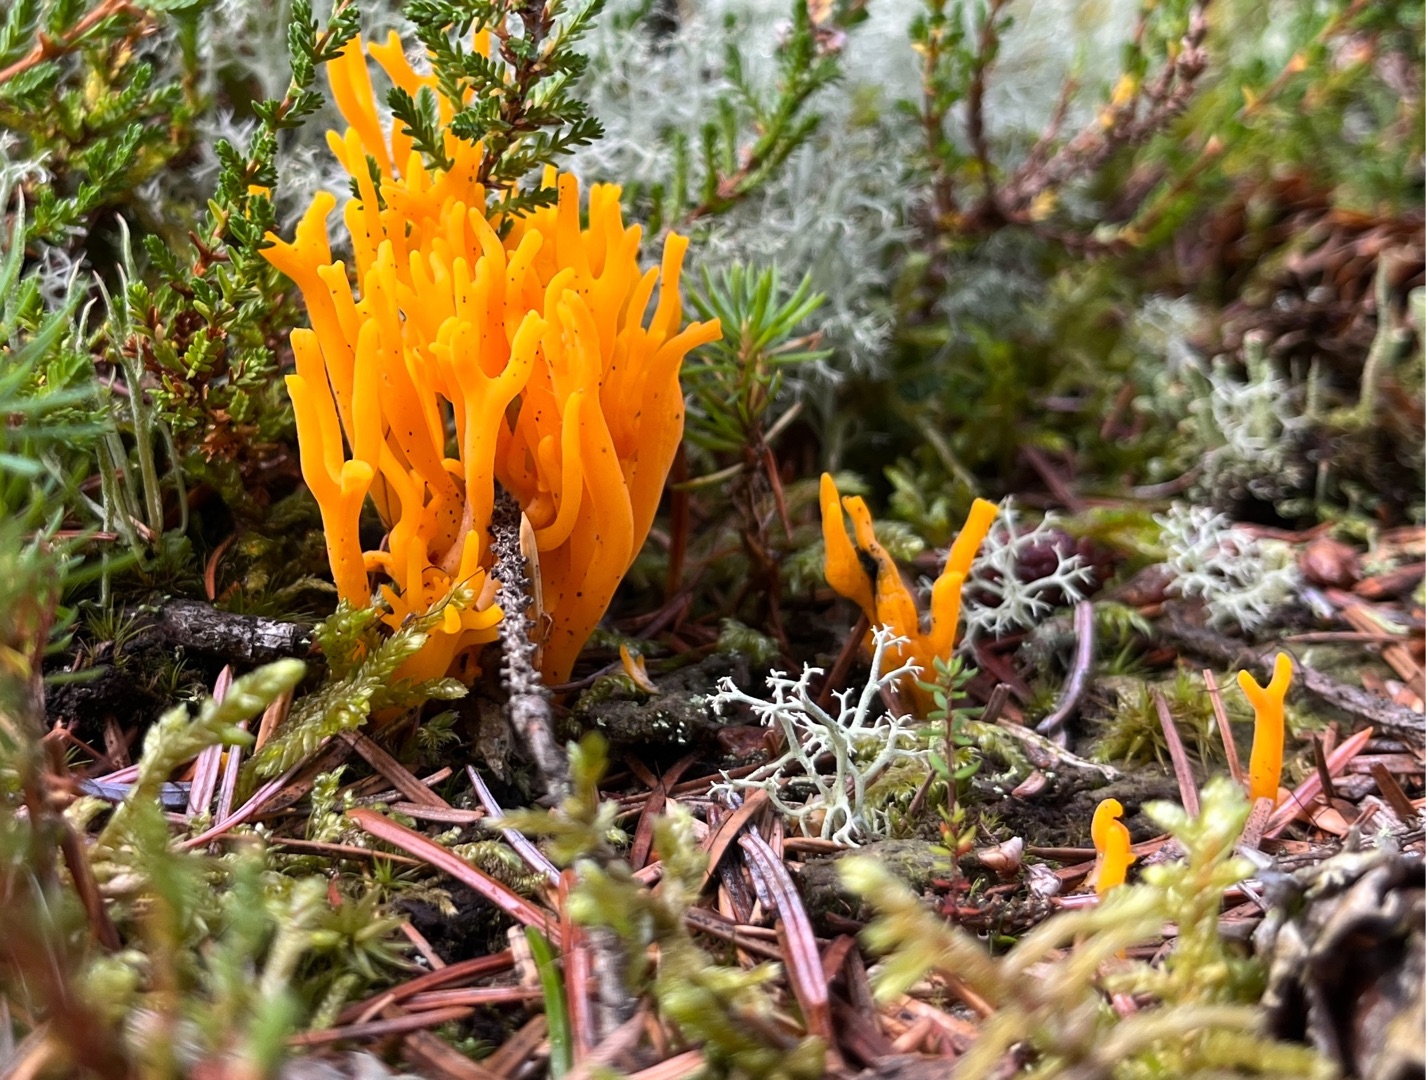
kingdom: Fungi
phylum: Basidiomycota
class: Dacrymycetes
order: Dacrymycetales
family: Dacrymycetaceae
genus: Calocera
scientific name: Calocera viscosa
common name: Almindelig guldgaffel
